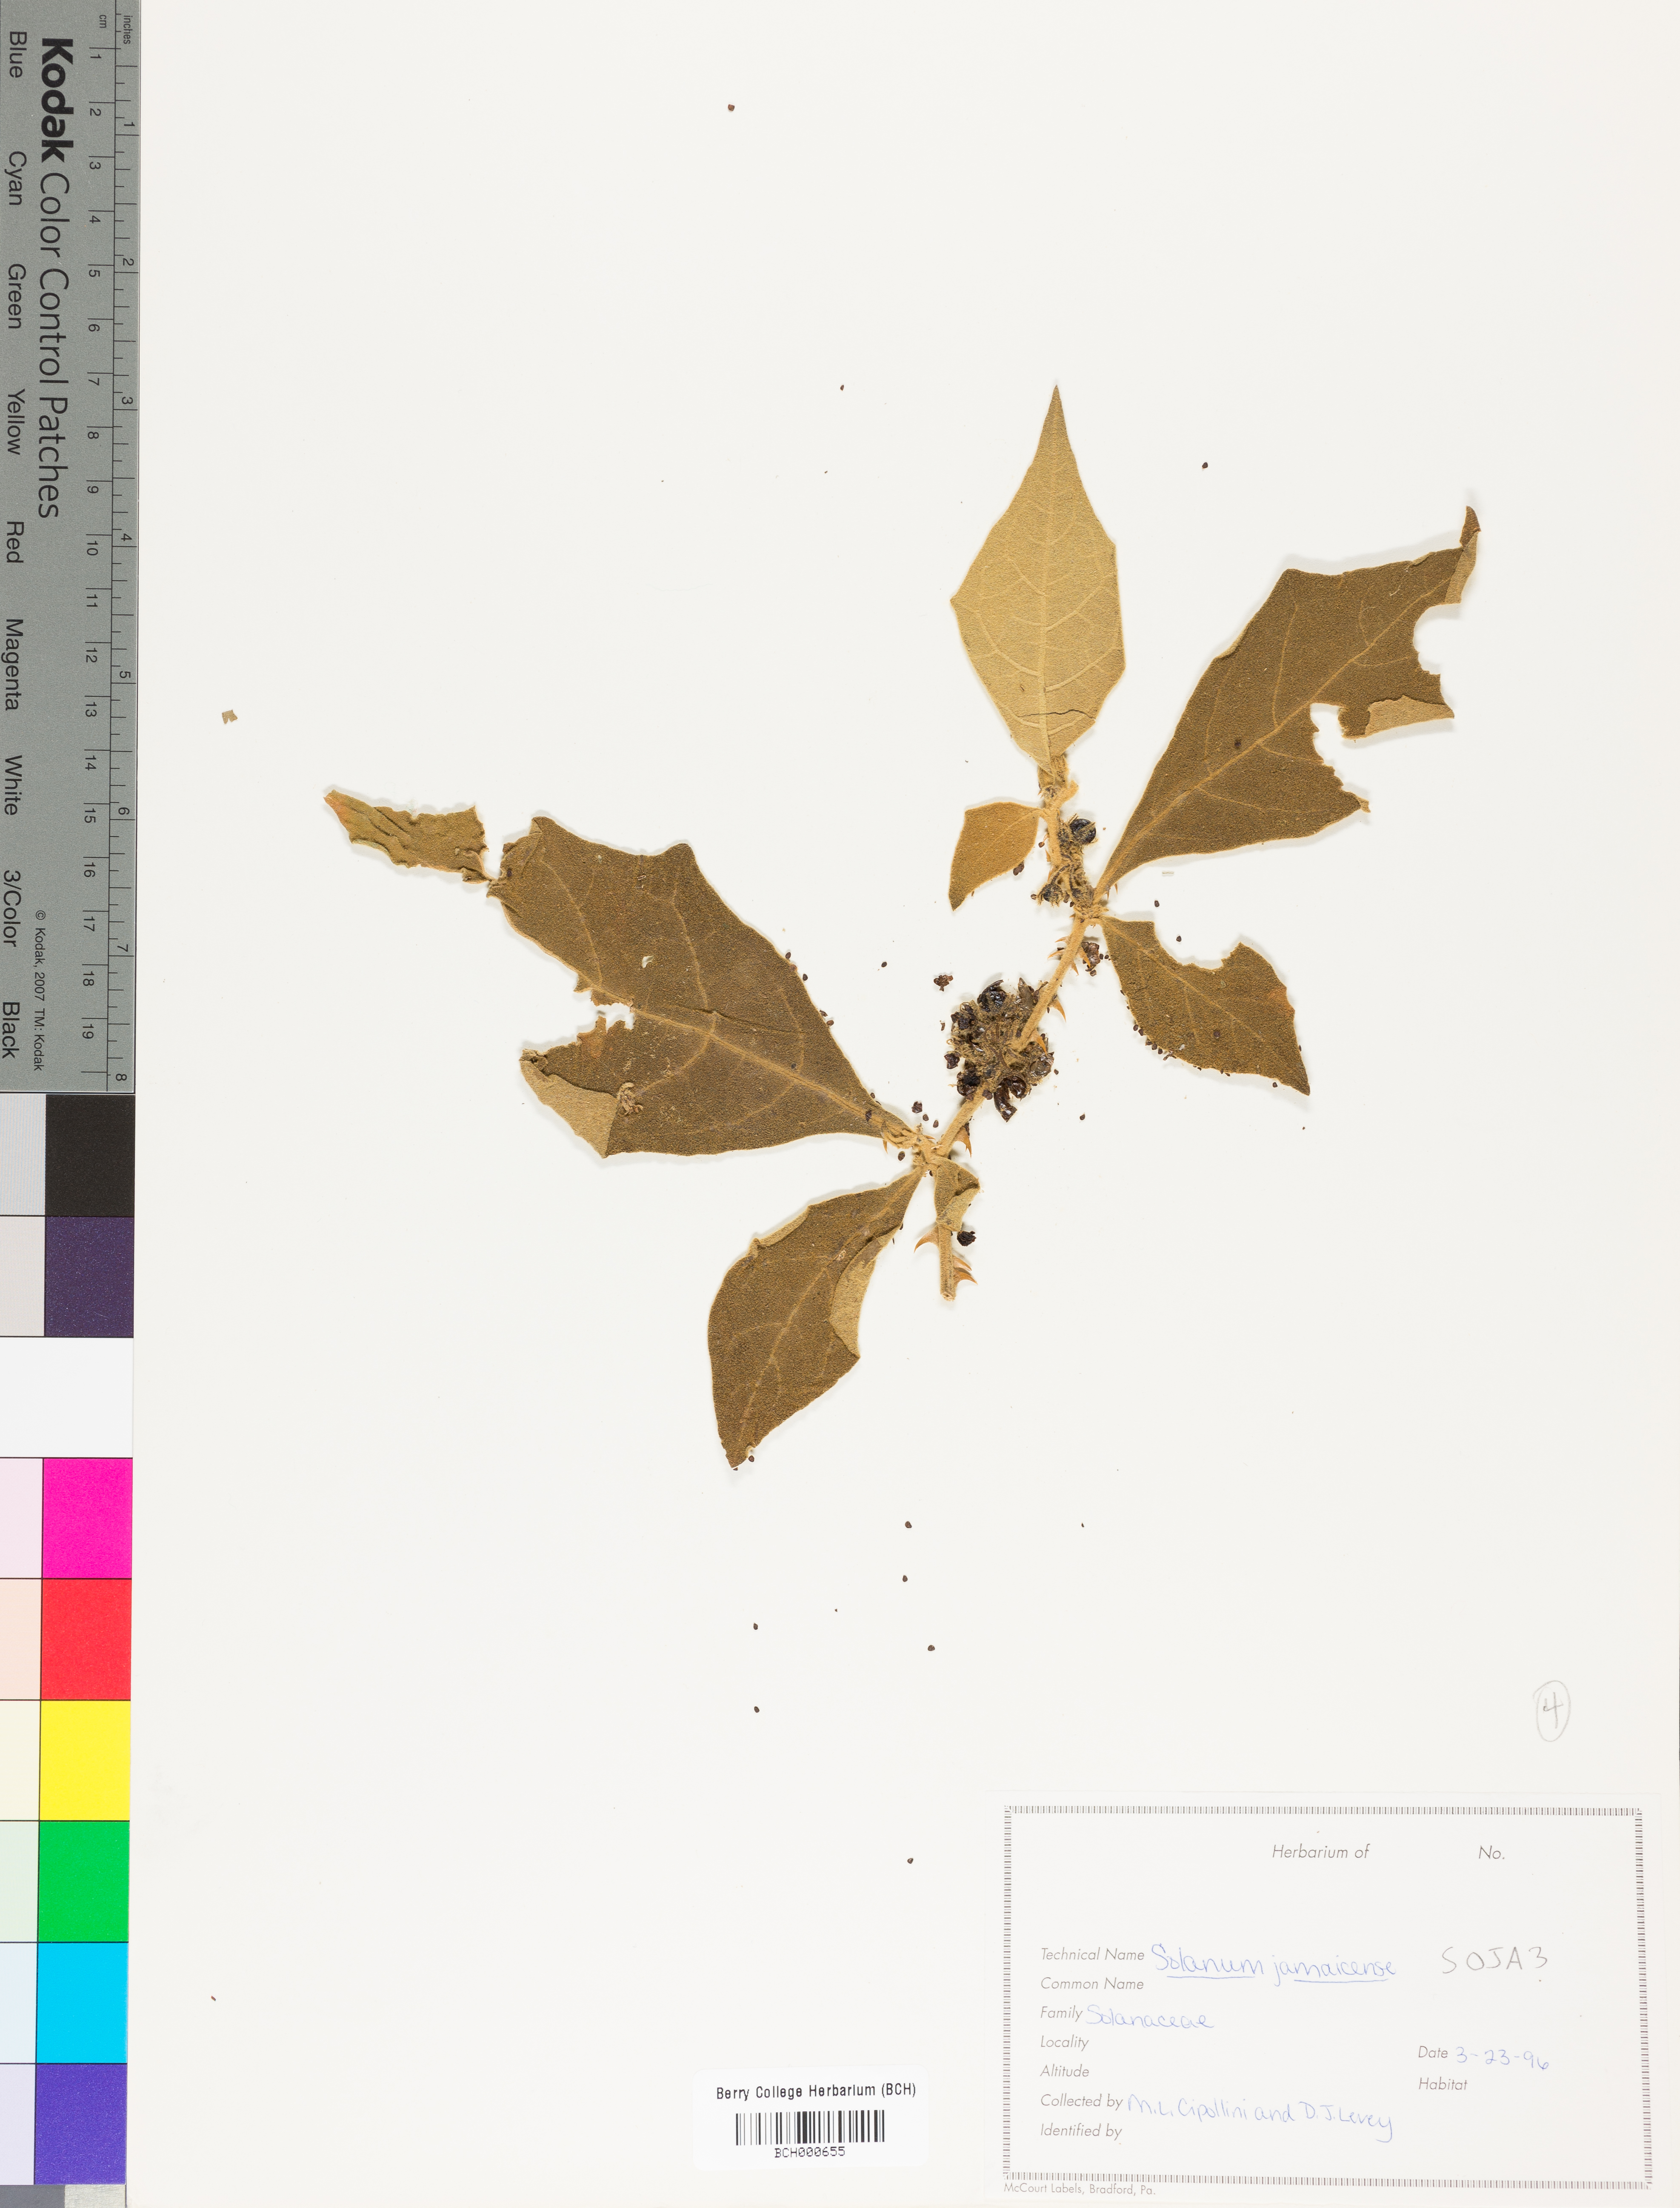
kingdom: Plantae
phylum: Tracheophyta
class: Magnoliopsida
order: Solanales
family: Solanaceae
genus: Solanum
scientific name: Solanum jamaicense
